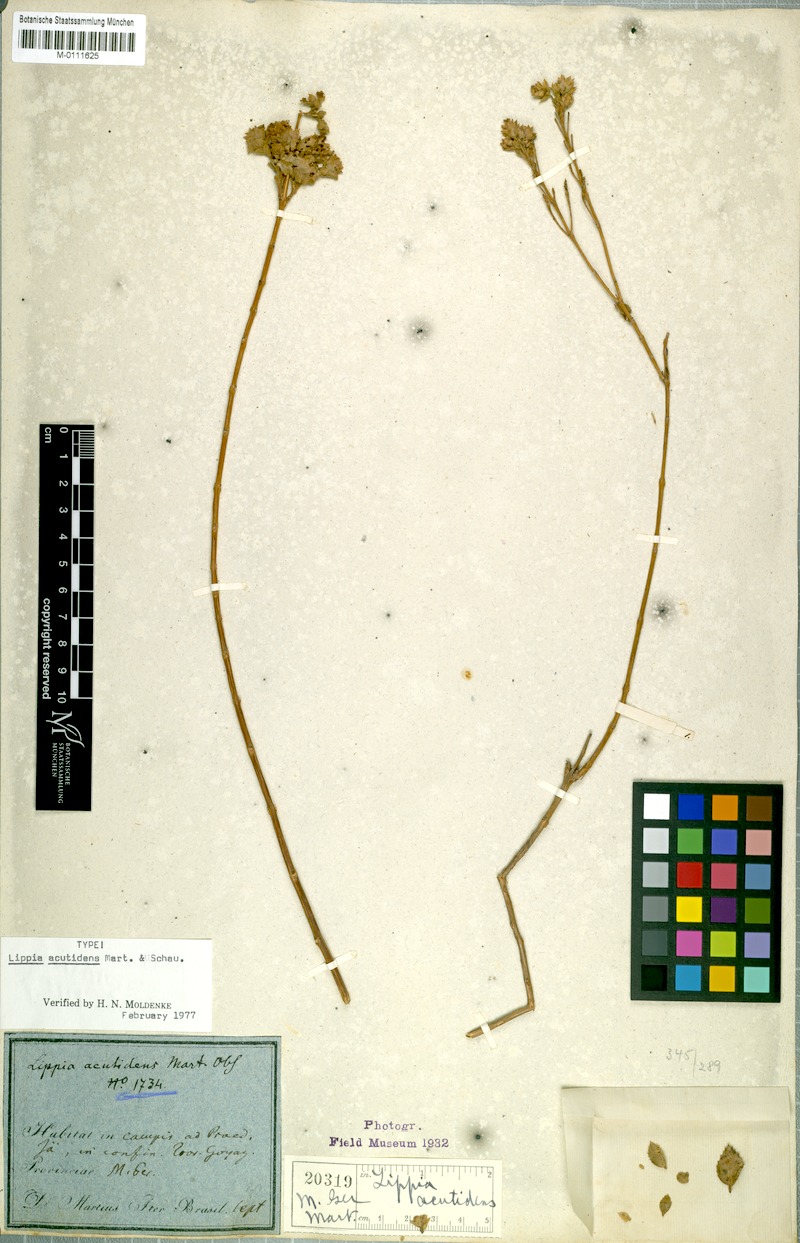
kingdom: Plantae
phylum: Tracheophyta
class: Magnoliopsida
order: Lamiales
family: Verbenaceae
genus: Lippia
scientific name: Lippia acutidens
